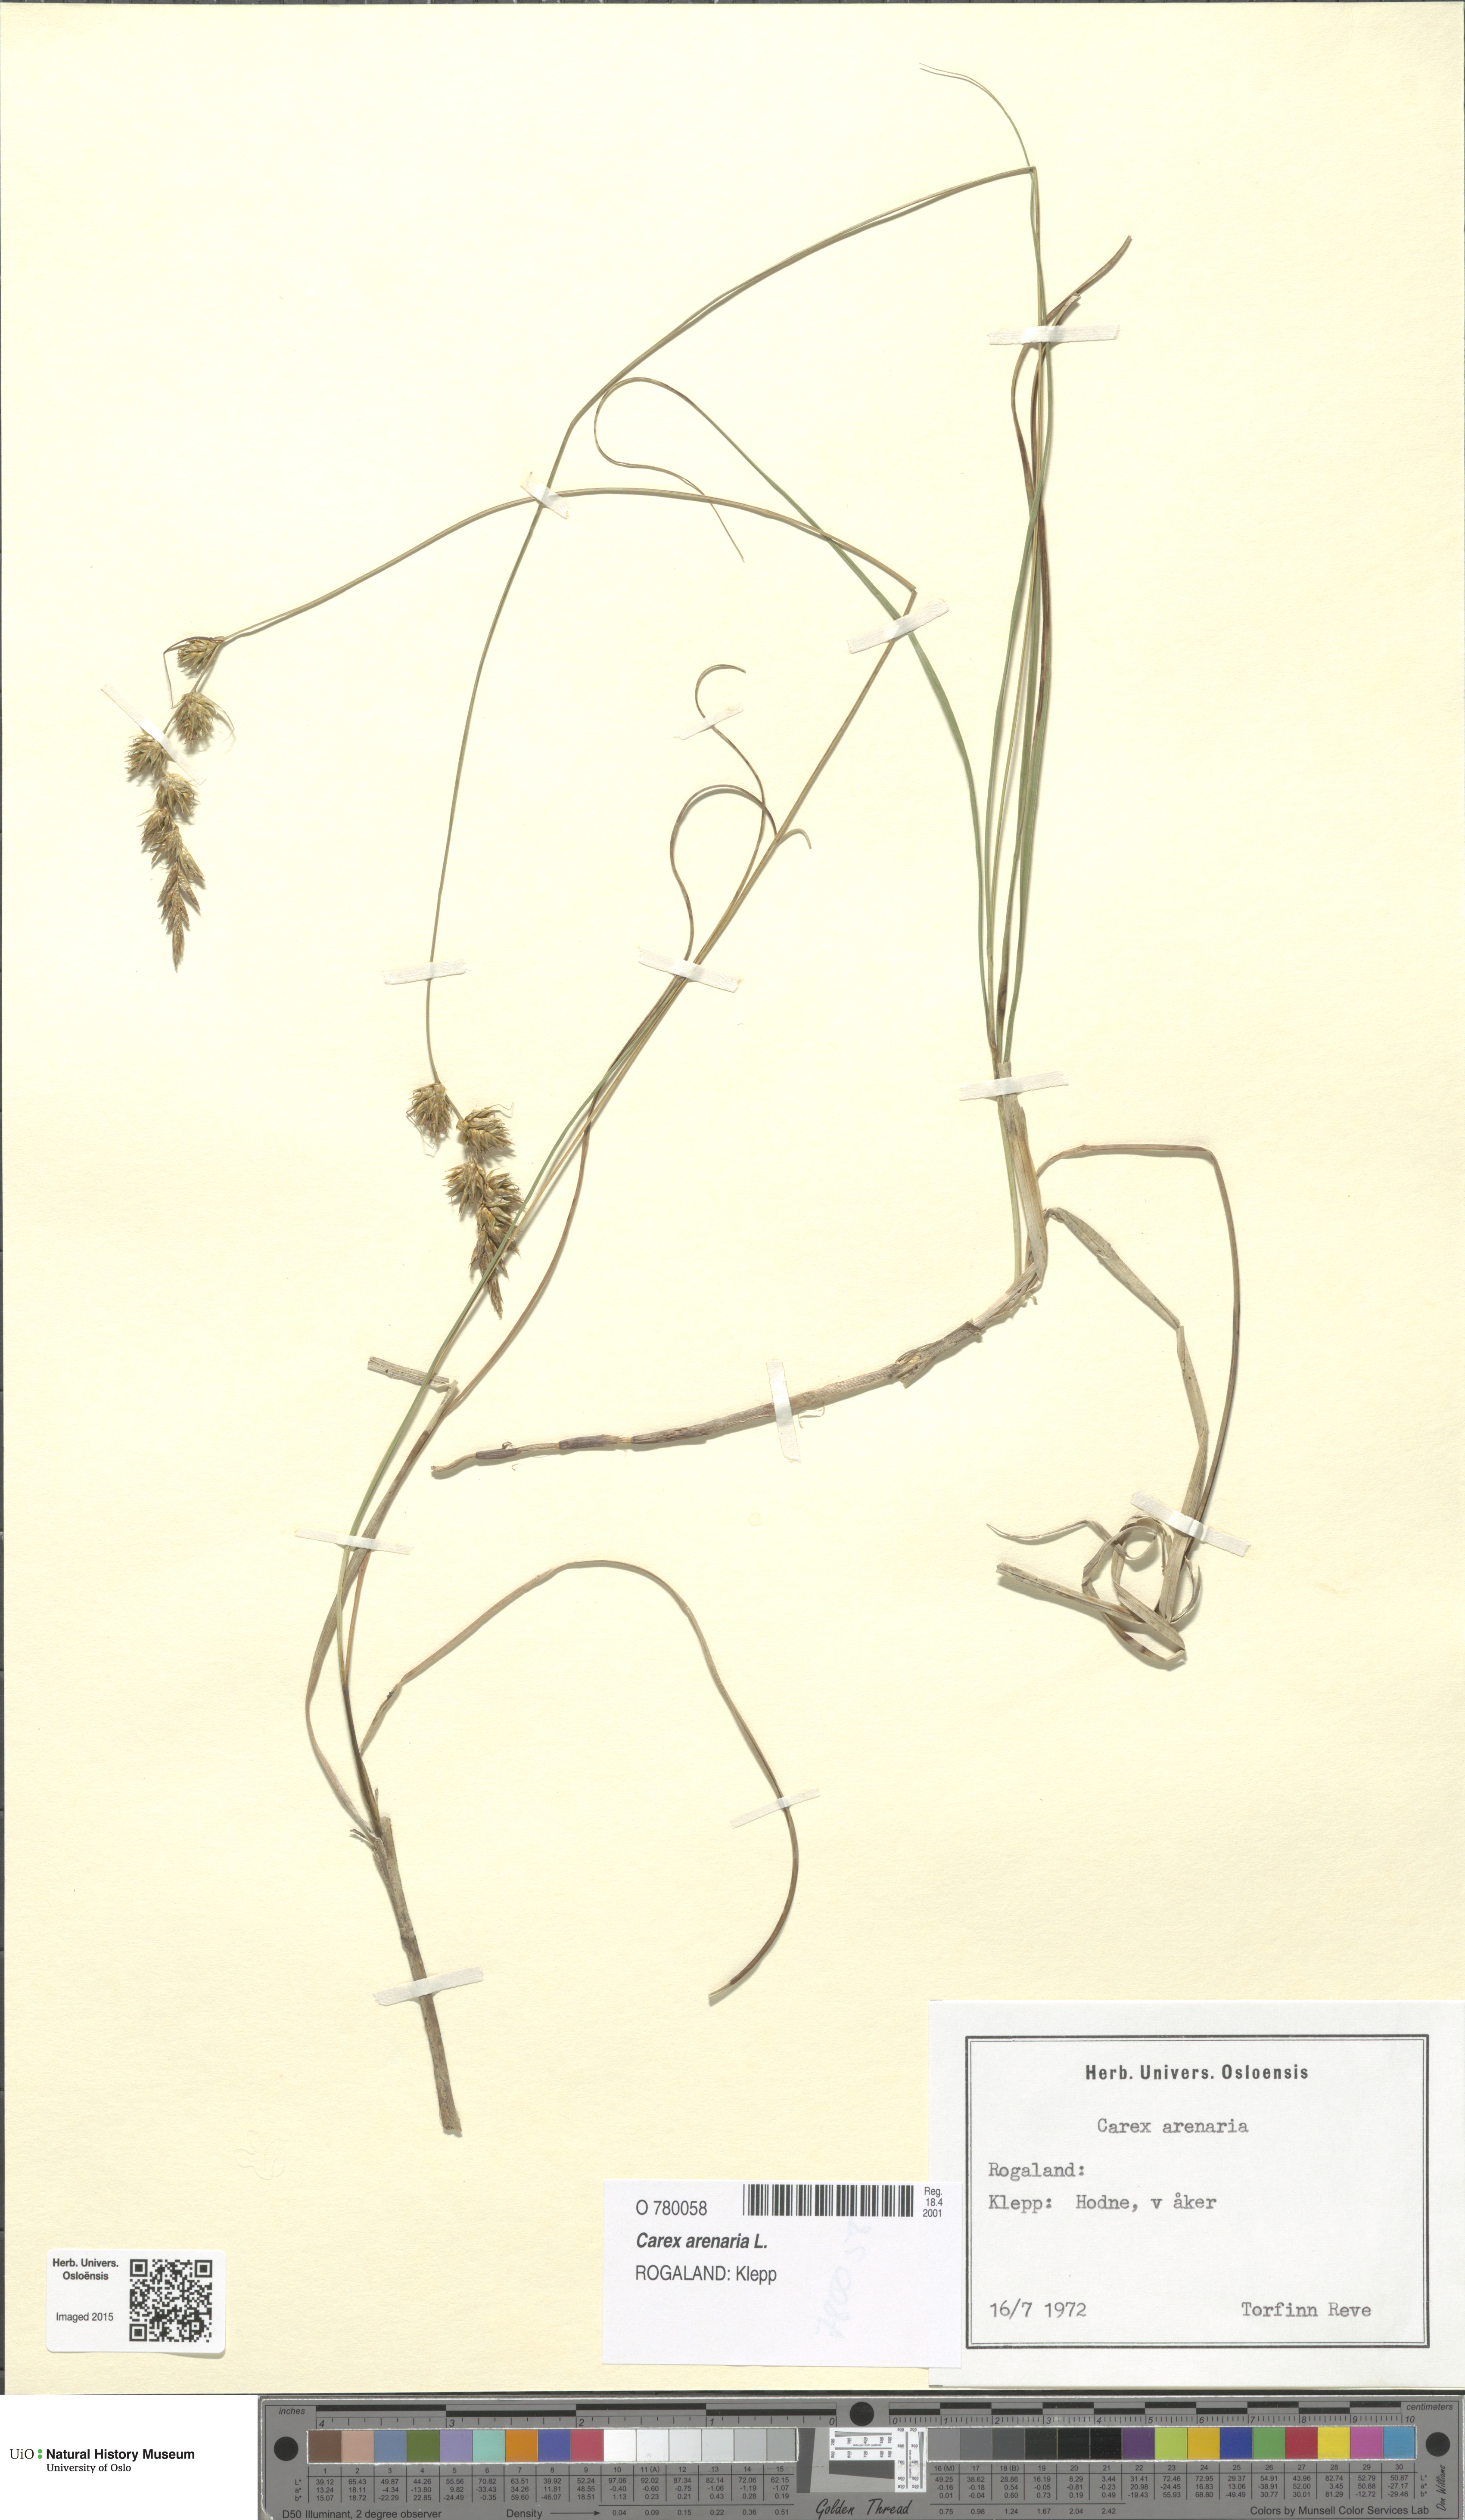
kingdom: Plantae
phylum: Tracheophyta
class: Liliopsida
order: Poales
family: Cyperaceae
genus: Carex
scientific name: Carex arenaria
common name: Sand sedge
